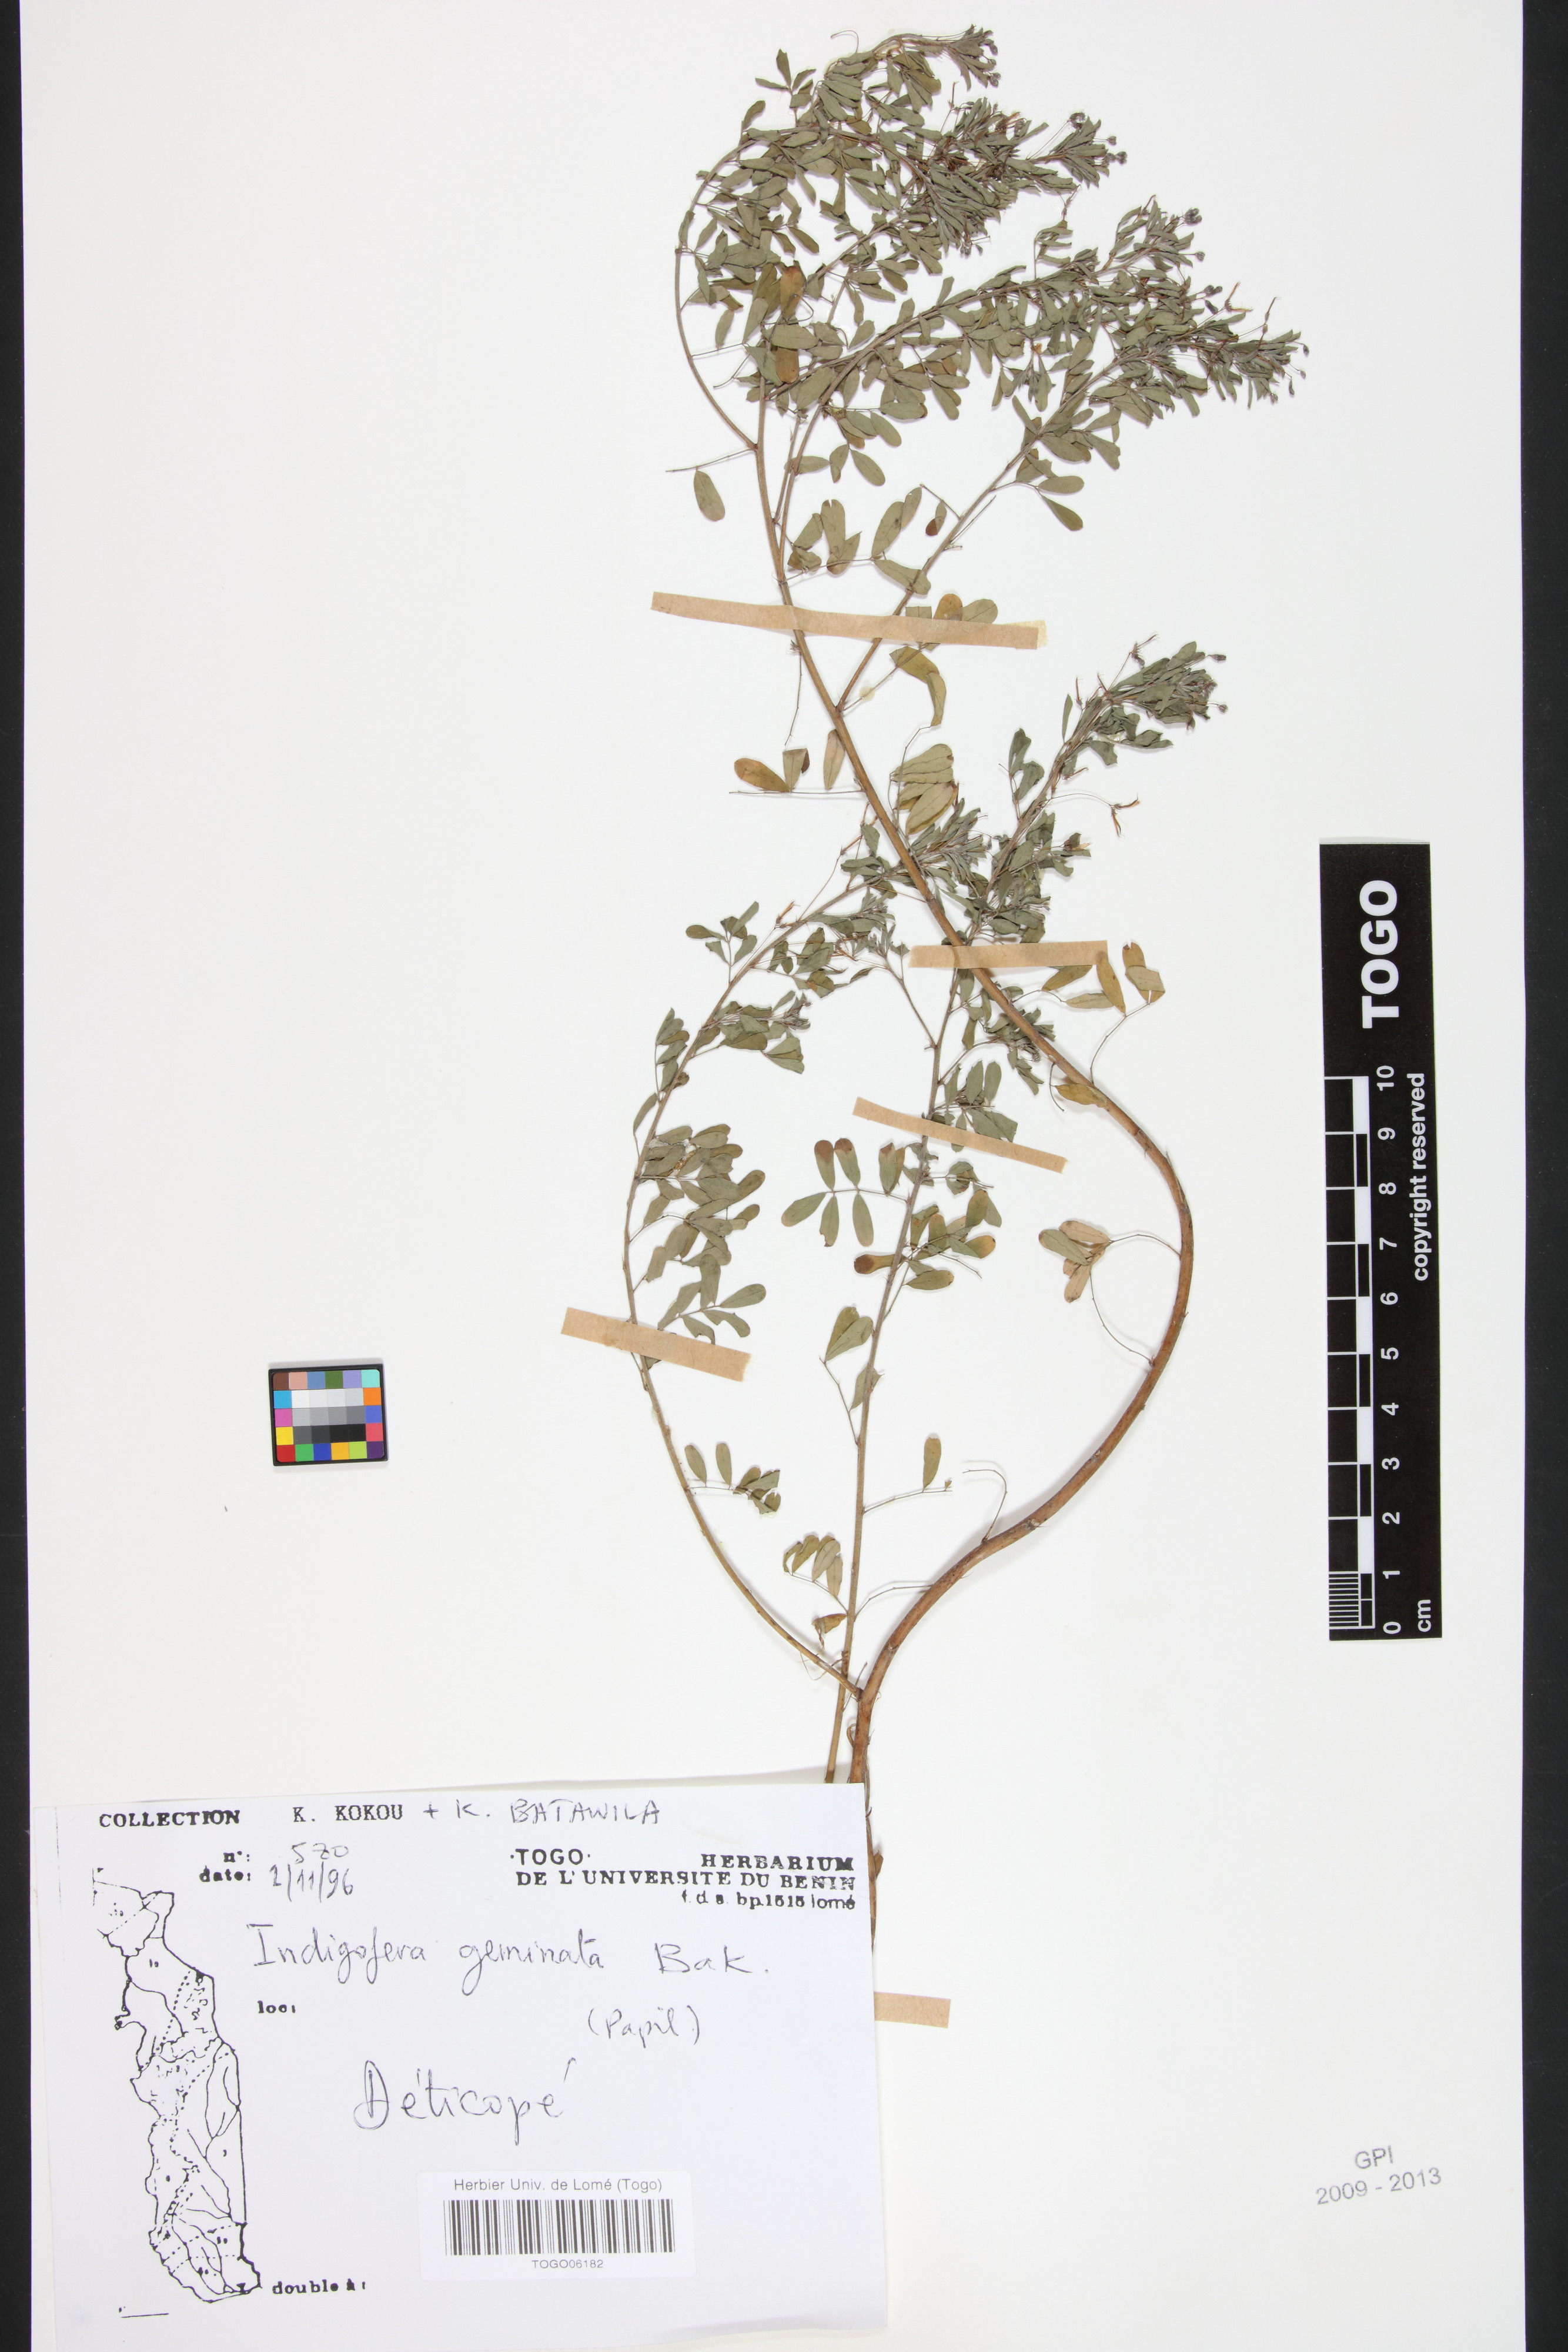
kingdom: Plantae
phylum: Tracheophyta
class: Magnoliopsida
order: Fabales
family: Fabaceae
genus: Indigofera
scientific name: Indigofera geminata
